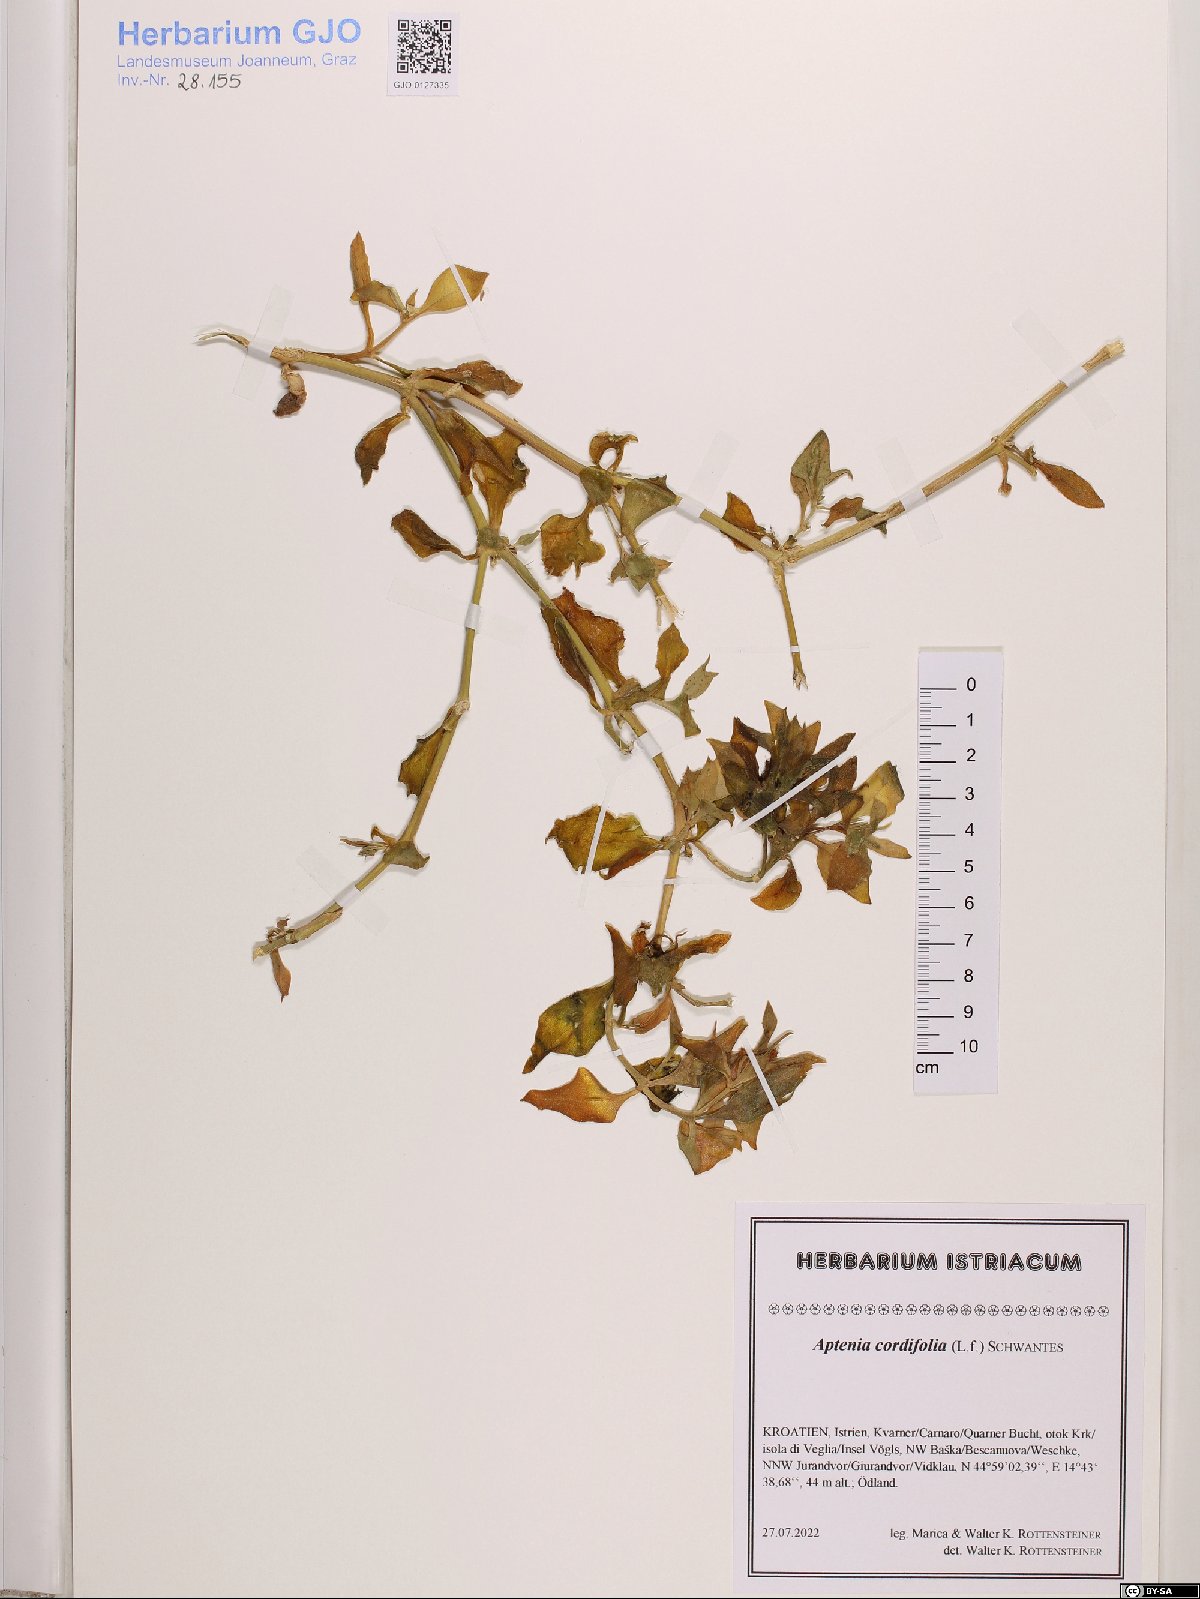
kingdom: Plantae
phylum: Tracheophyta
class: Magnoliopsida
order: Caryophyllales
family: Aizoaceae
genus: Mesembryanthemum
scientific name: Mesembryanthemum cordifolium
